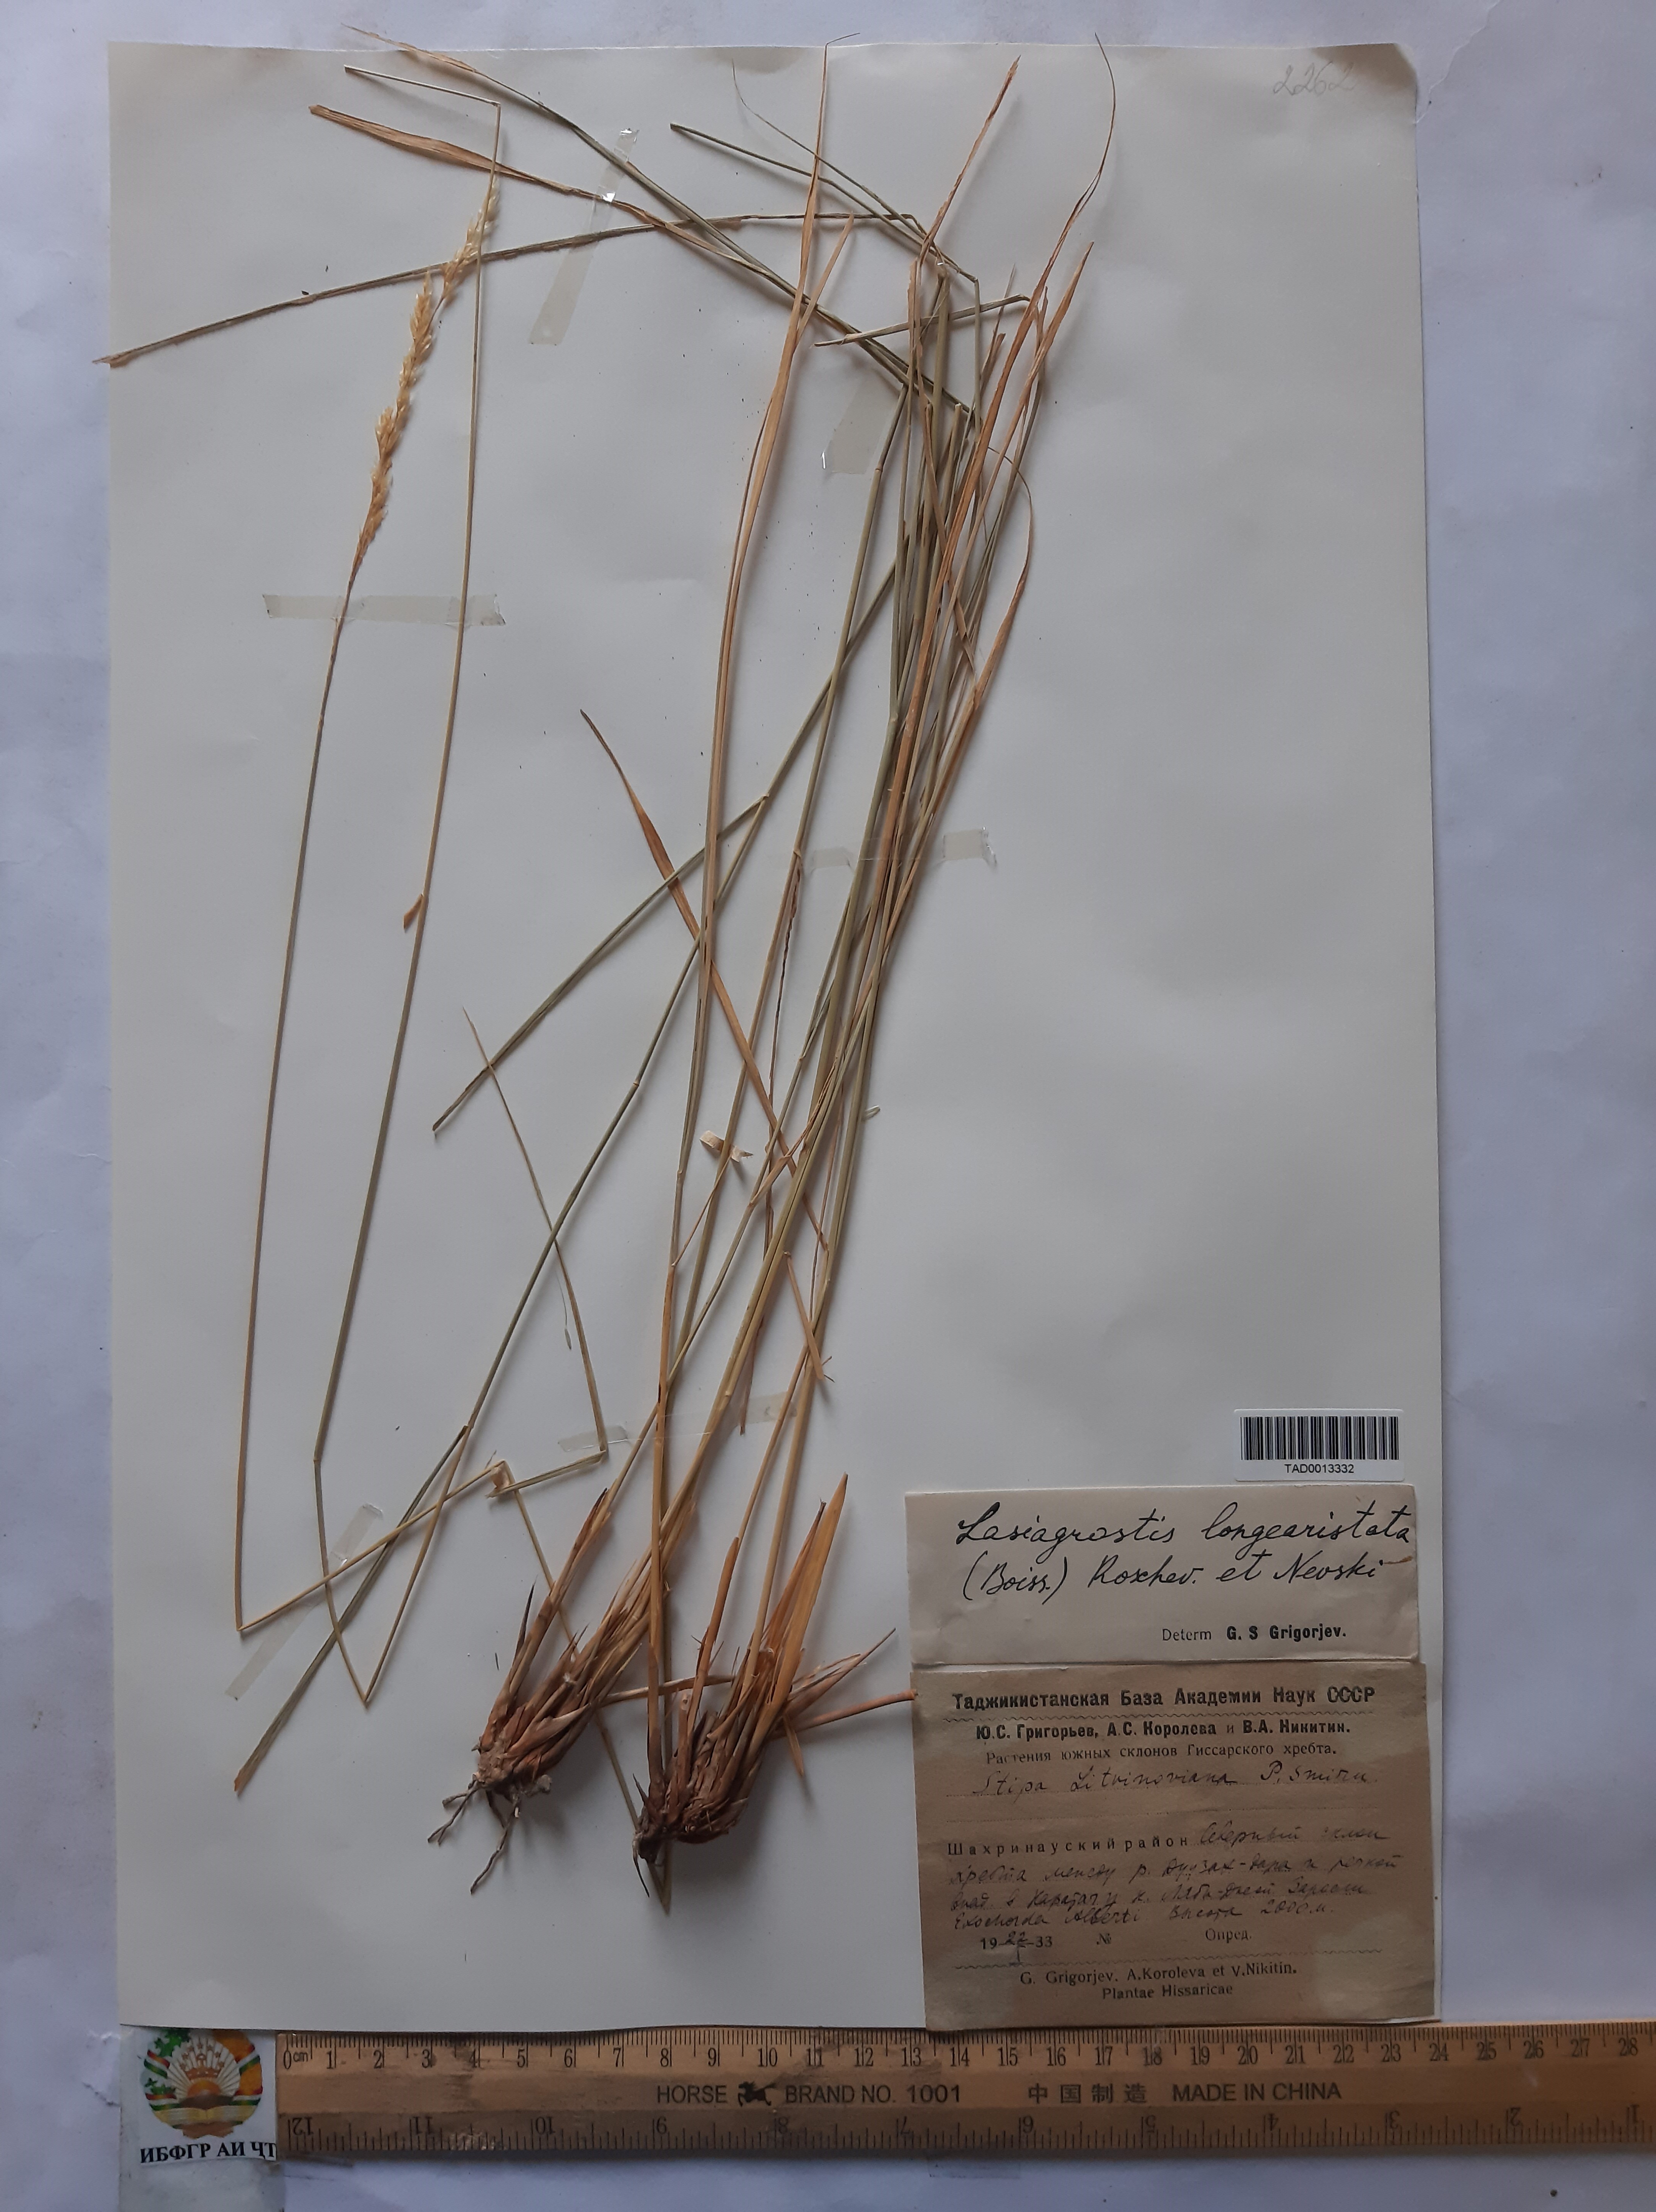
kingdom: Plantae
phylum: Tracheophyta
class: Liliopsida
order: Poales
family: Poaceae
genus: Achnatherum
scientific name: Achnatherum turcomanicum
